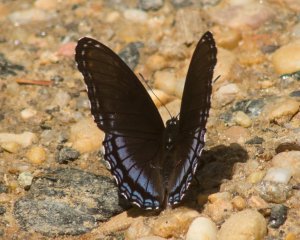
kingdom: Animalia
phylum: Arthropoda
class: Insecta
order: Lepidoptera
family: Nymphalidae
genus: Limenitis
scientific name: Limenitis astyanax
